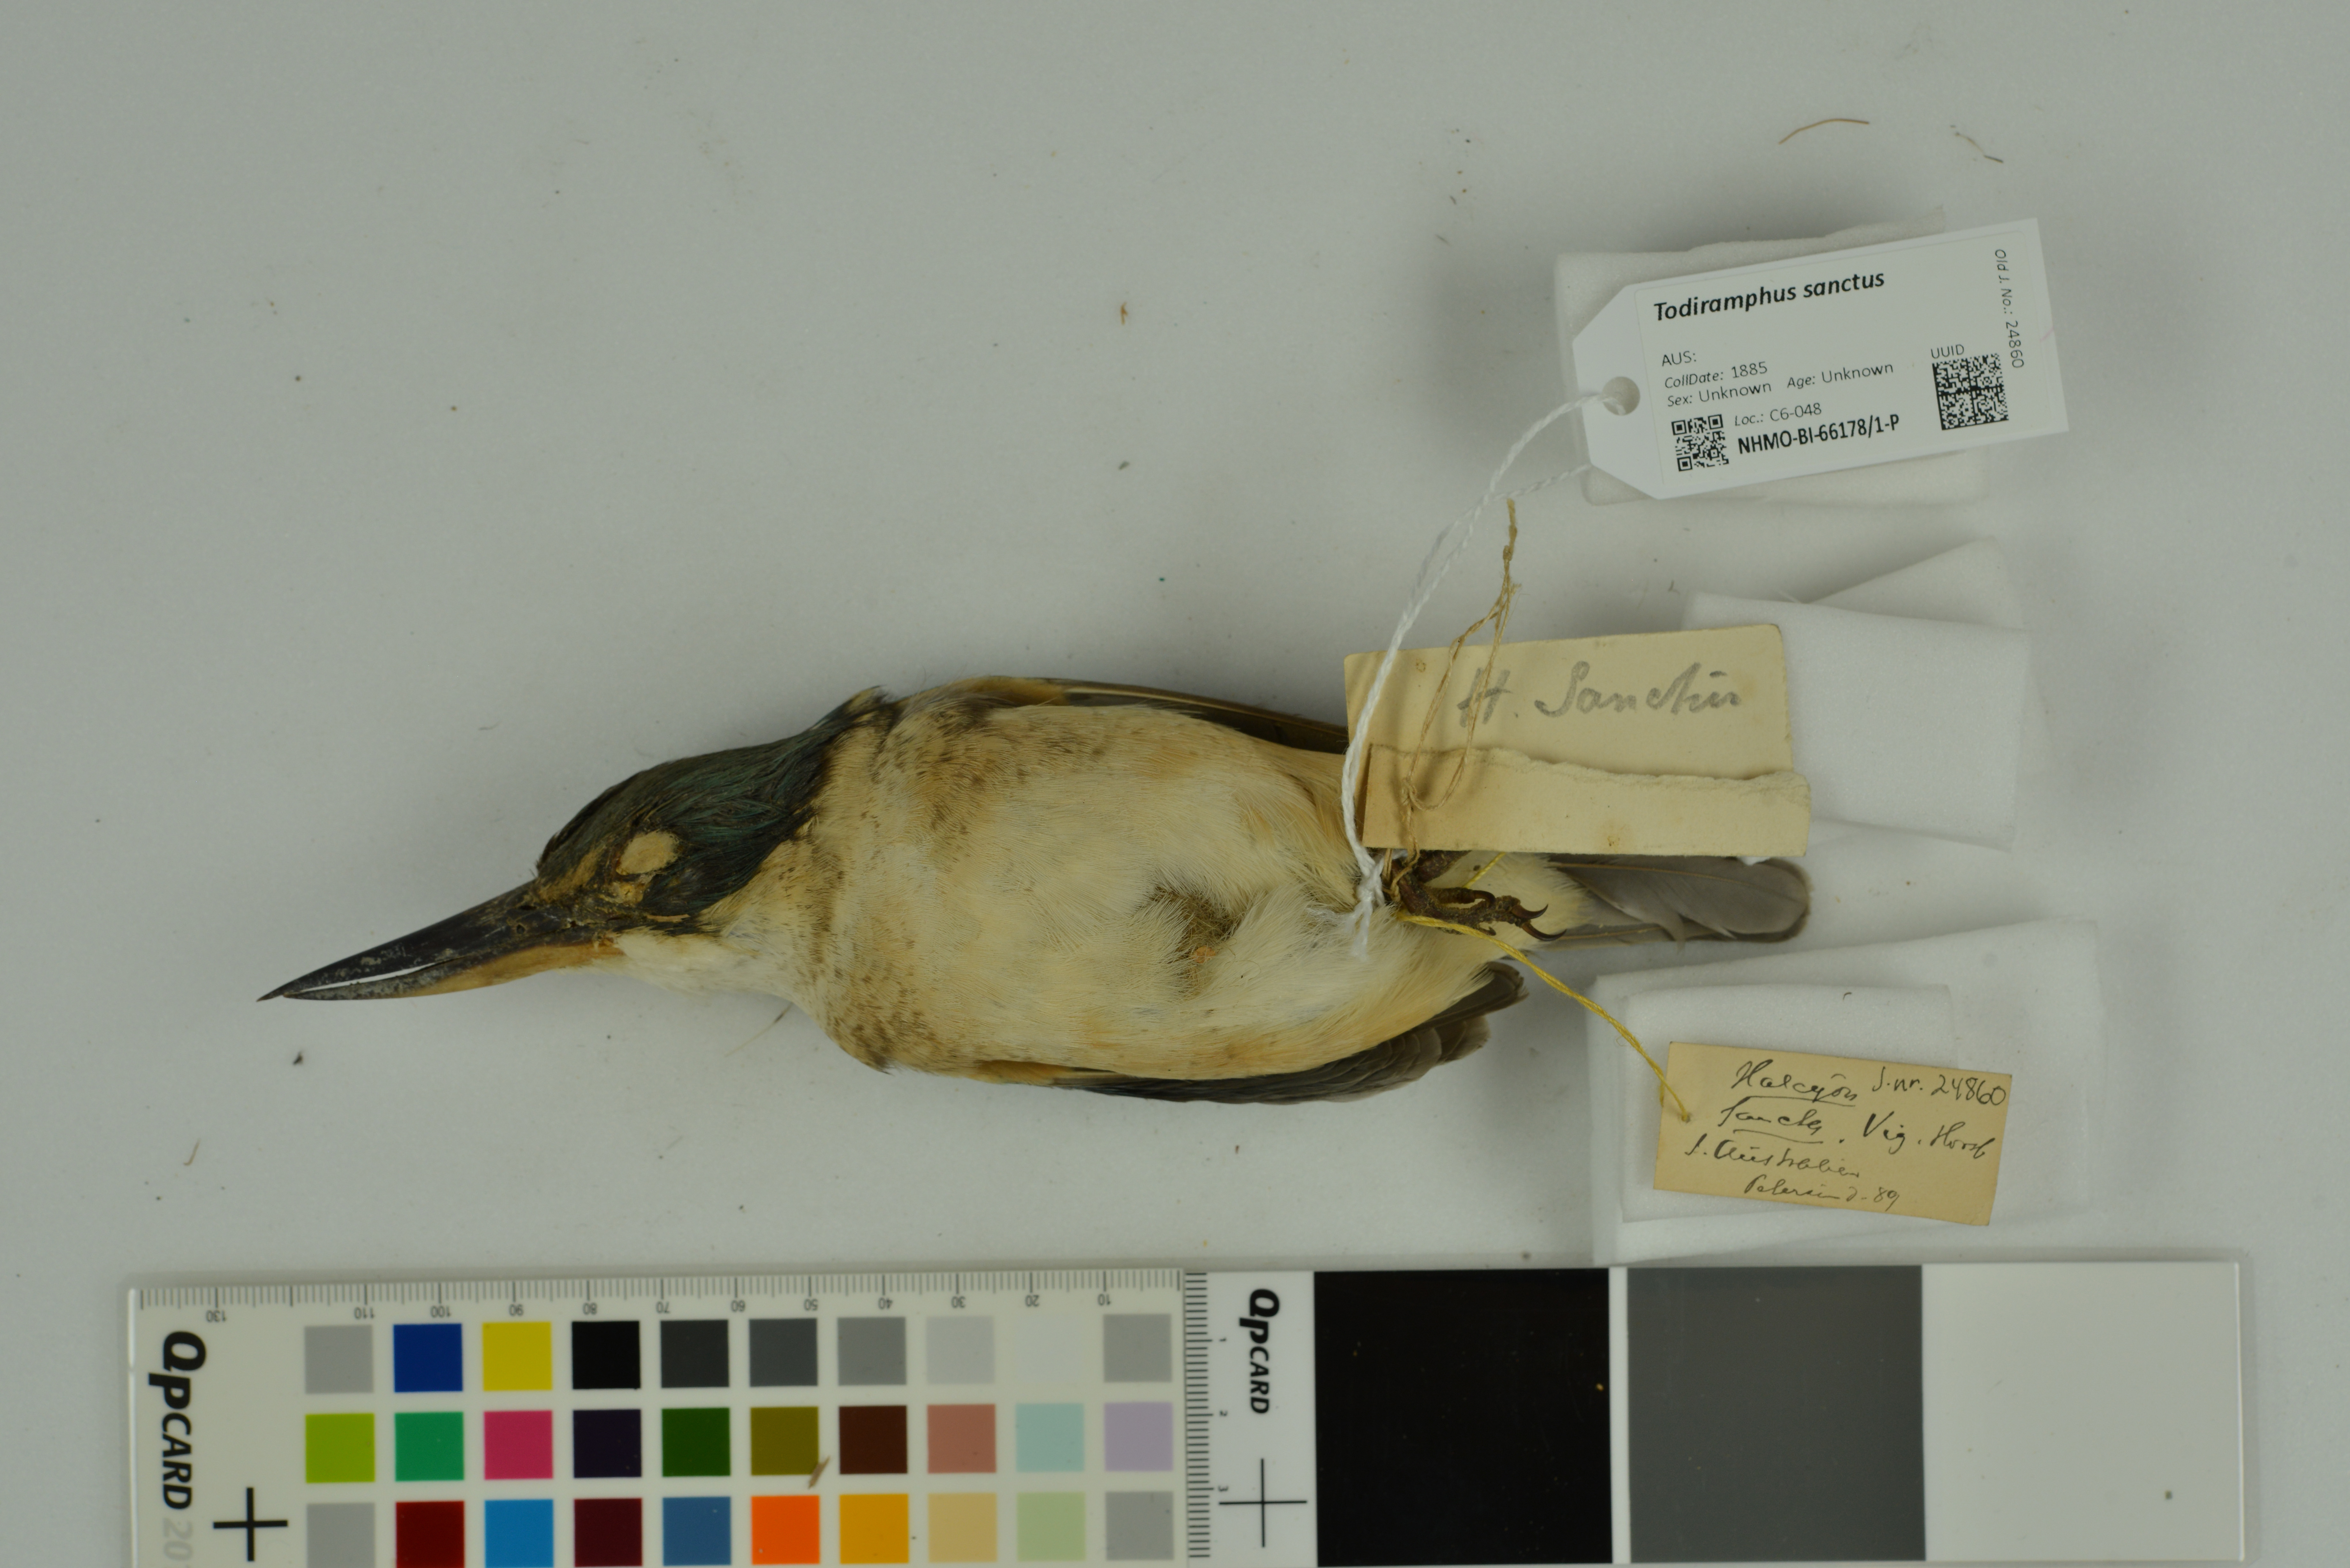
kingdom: Animalia
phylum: Chordata
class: Aves
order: Coraciiformes
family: Alcedinidae
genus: Todiramphus
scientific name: Todiramphus sanctus
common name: Sacred kingfisher
